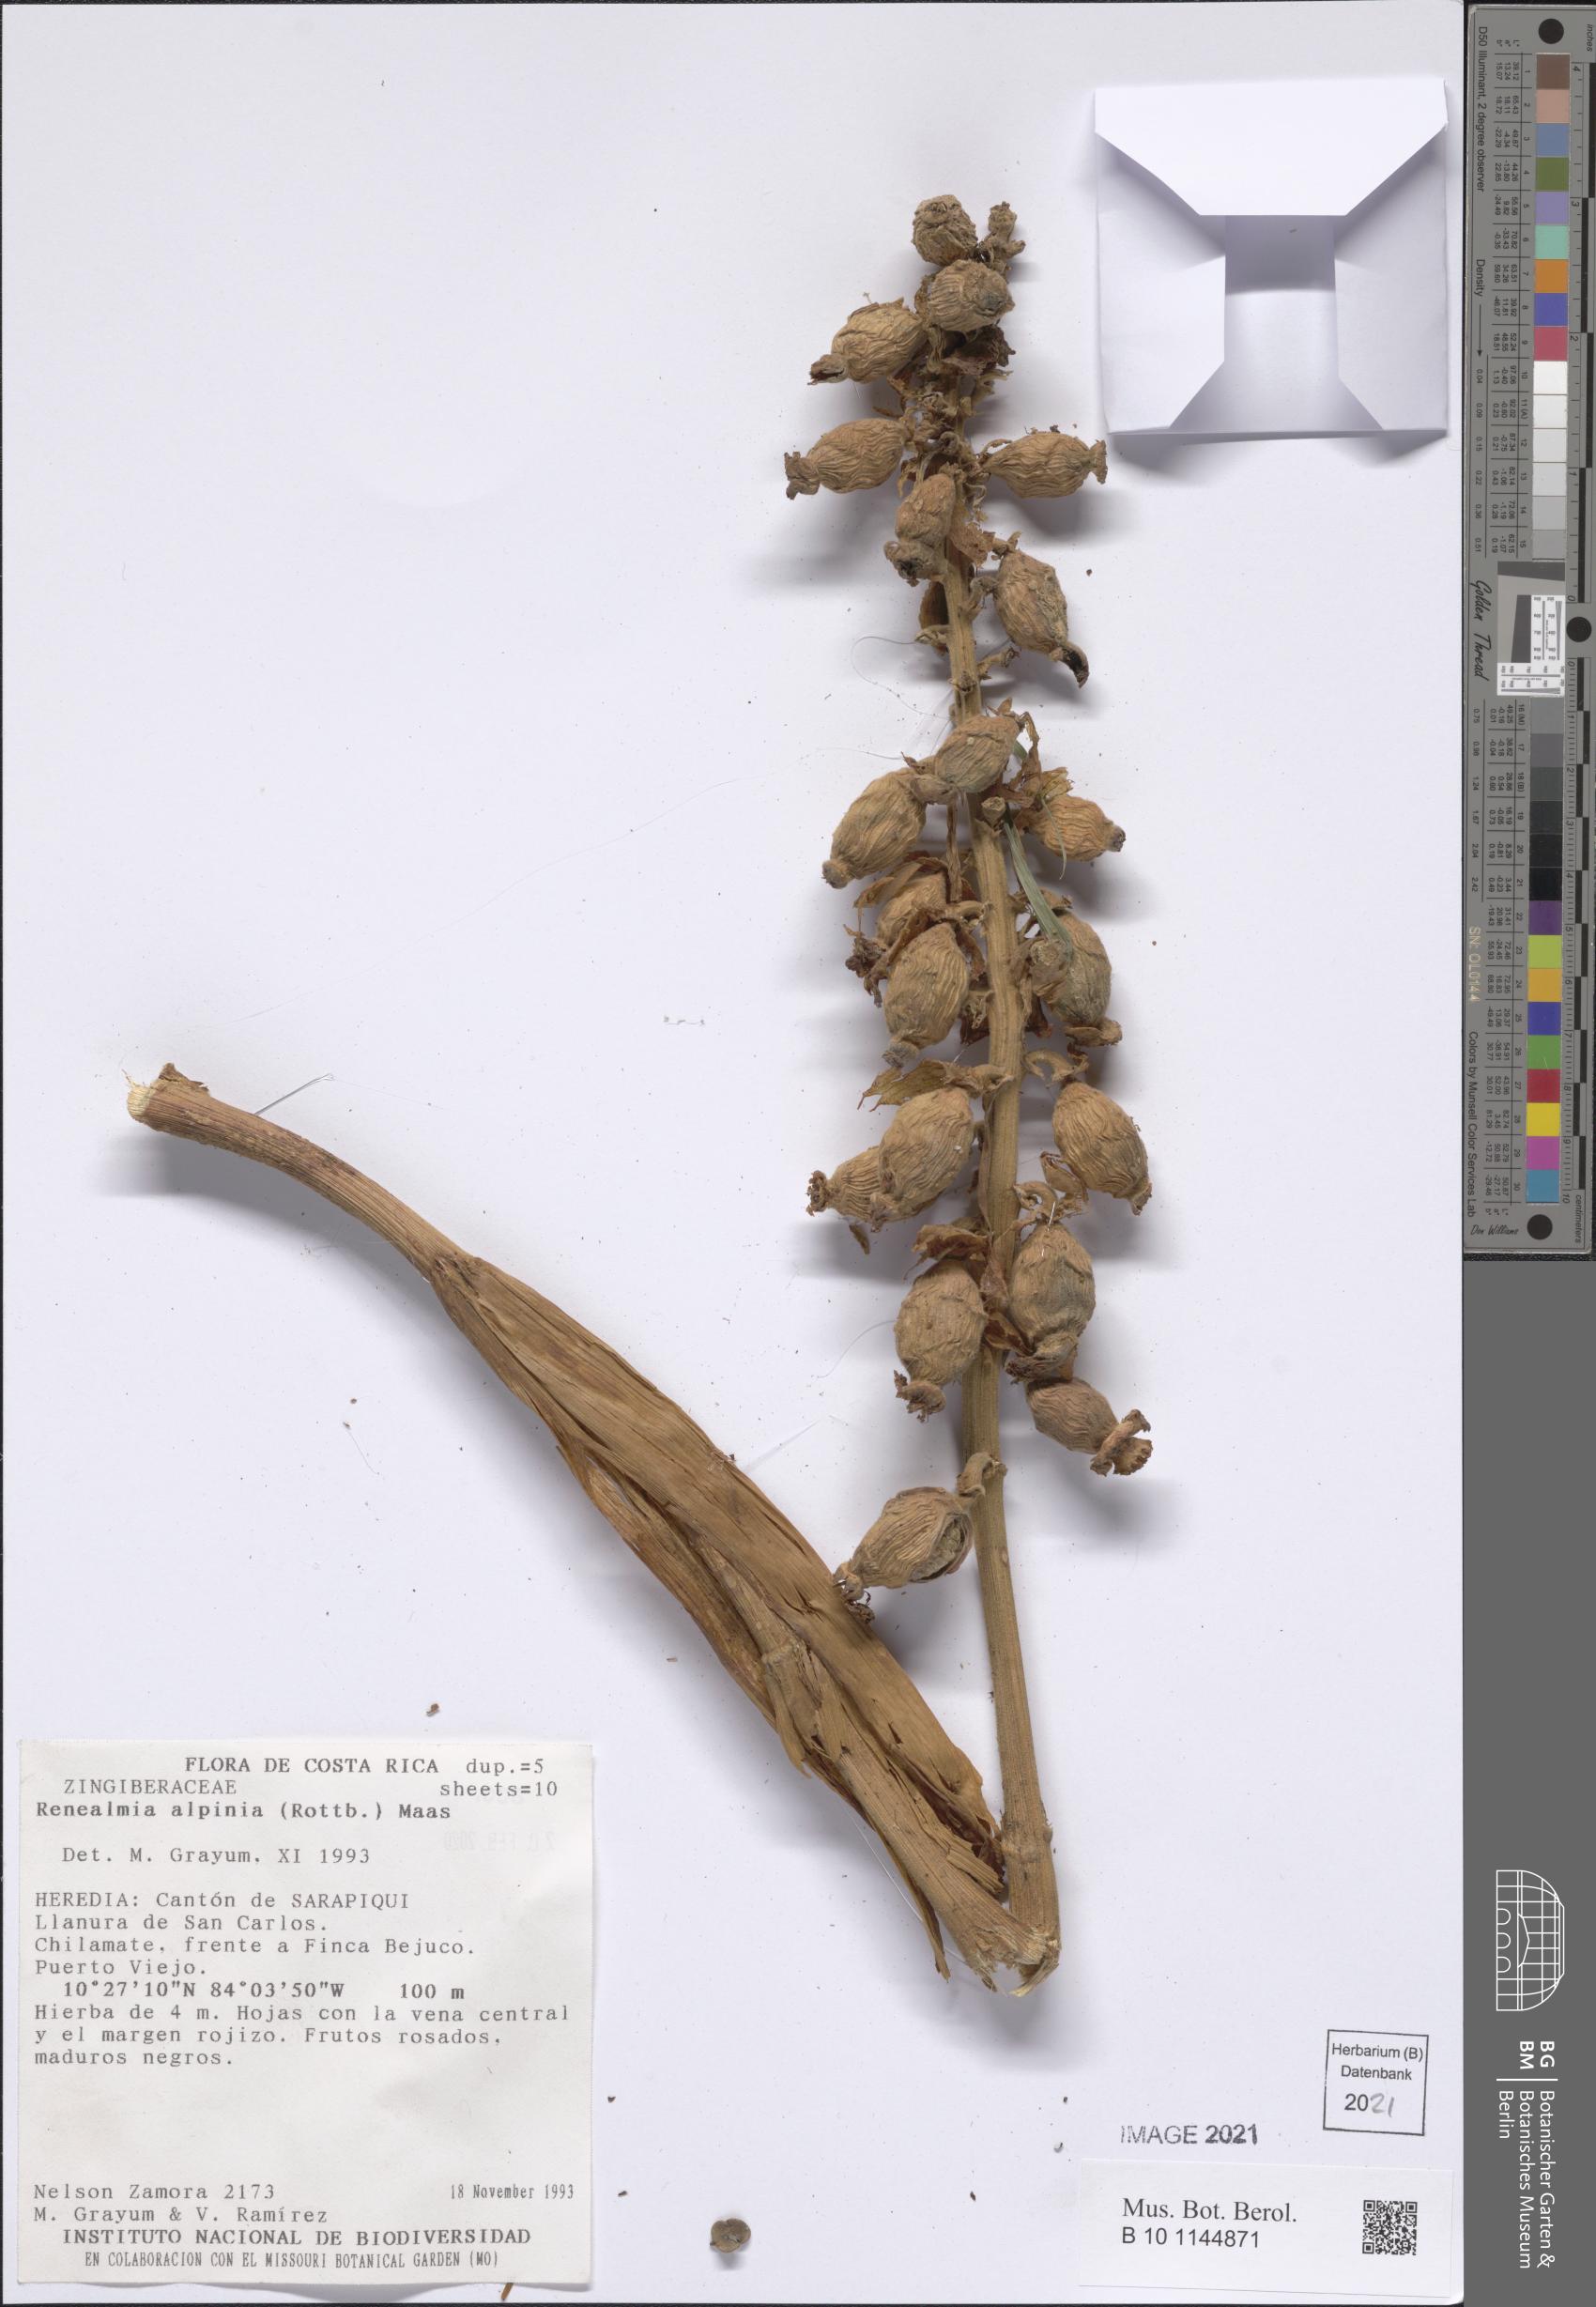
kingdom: Plantae
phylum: Tracheophyta
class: Liliopsida
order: Zingiberales
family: Zingiberaceae
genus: Renealmia
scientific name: Renealmia alpinia
